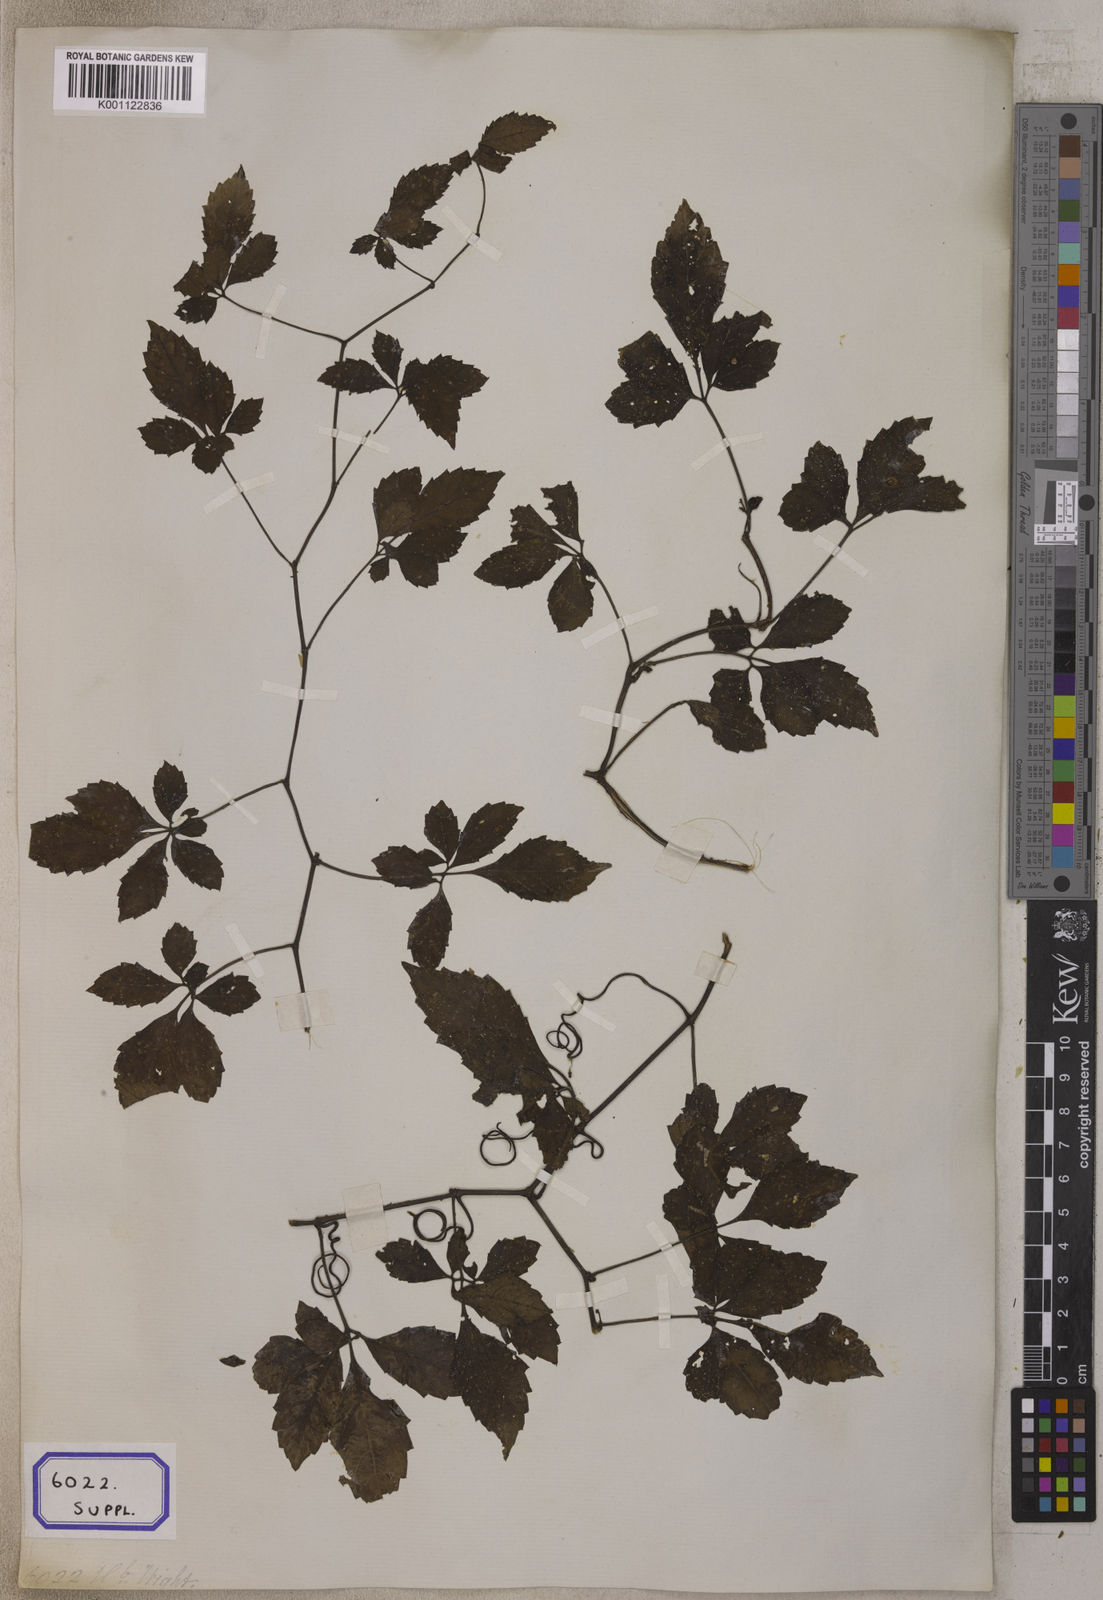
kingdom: Plantae
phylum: Tracheophyta
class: Magnoliopsida
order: Vitales
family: Vitaceae
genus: Causonis
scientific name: Causonis japonica
